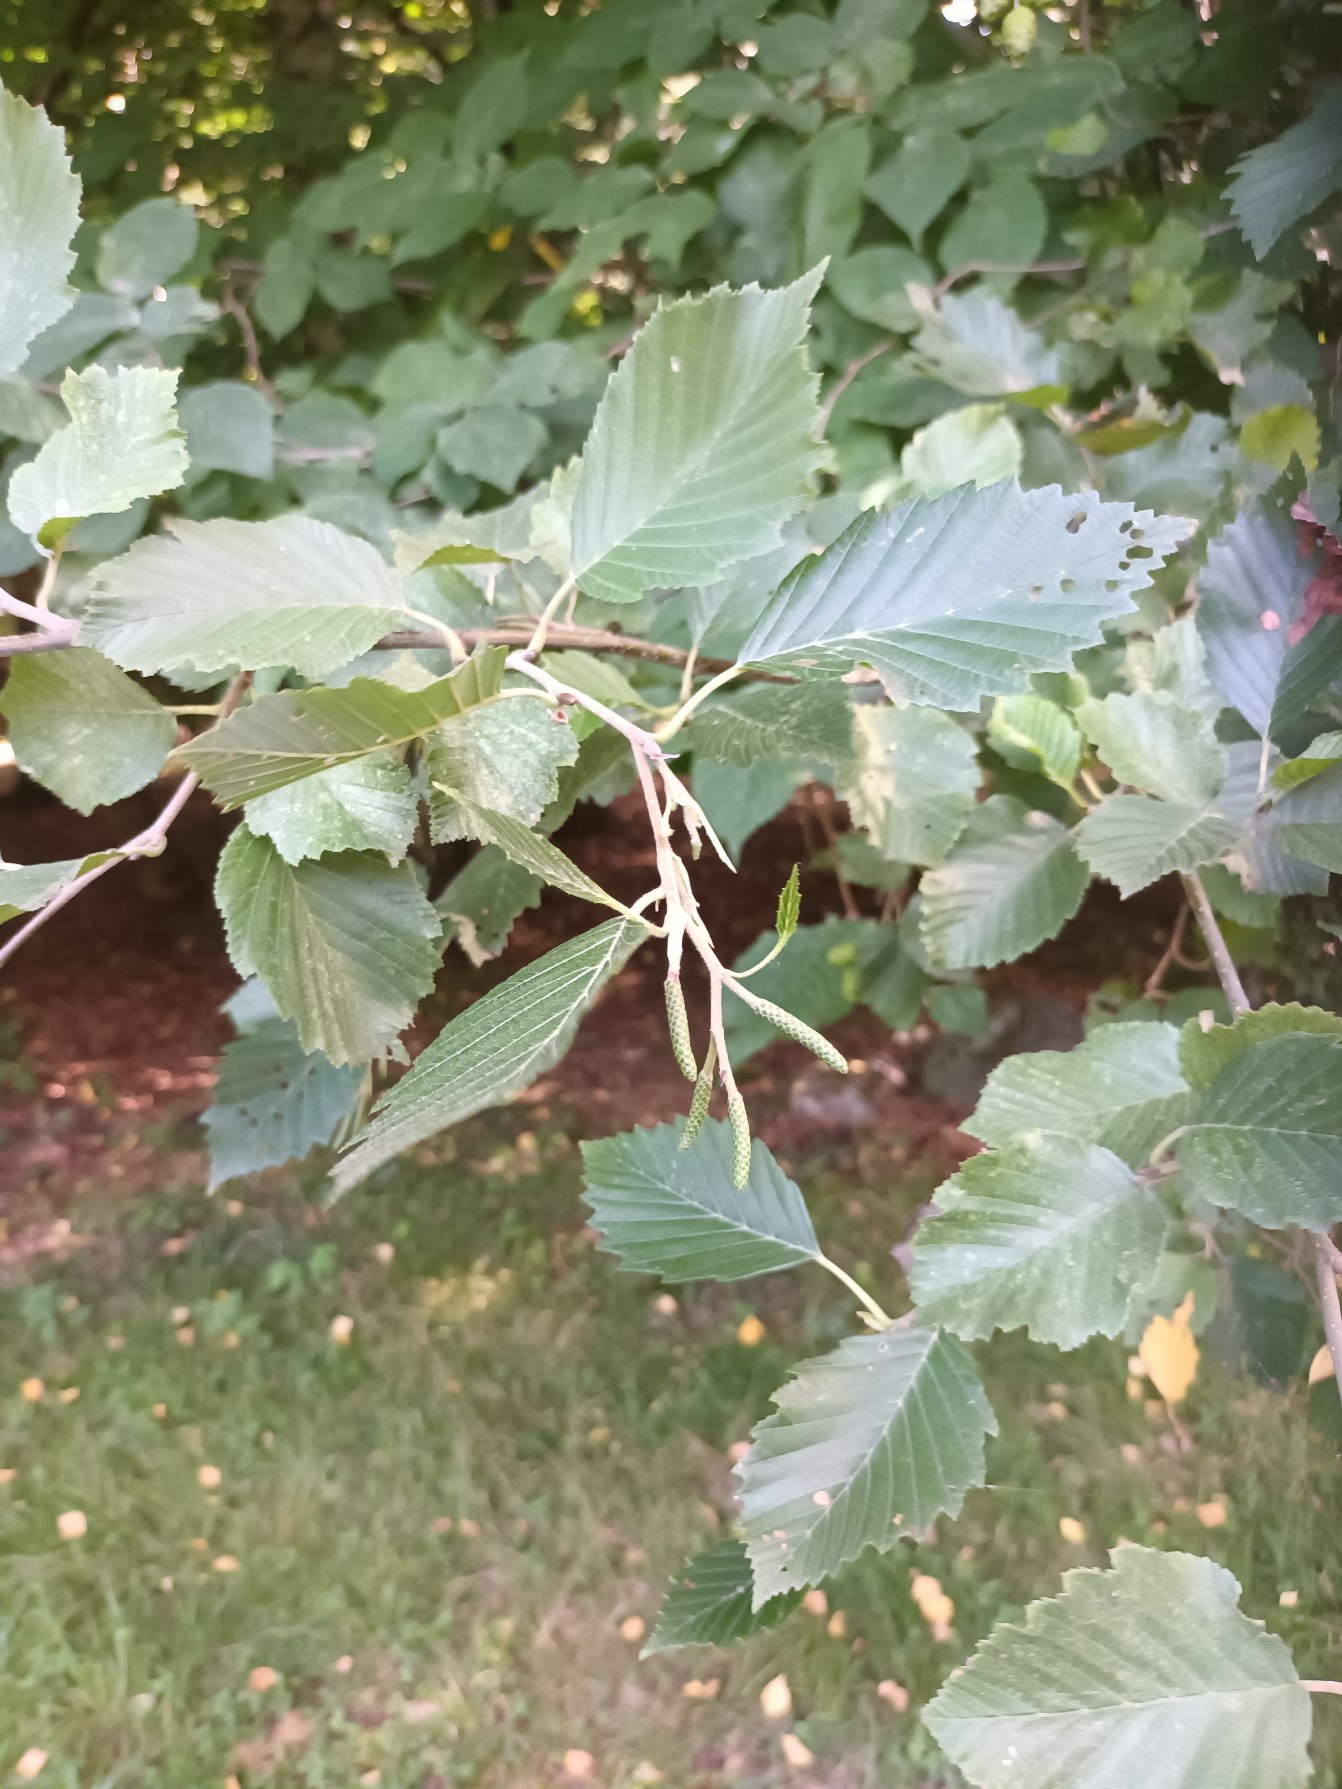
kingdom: Plantae
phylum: Tracheophyta
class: Magnoliopsida
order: Fagales
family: Betulaceae
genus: Alnus
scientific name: Alnus incana
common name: Grå-el/hvid-el
